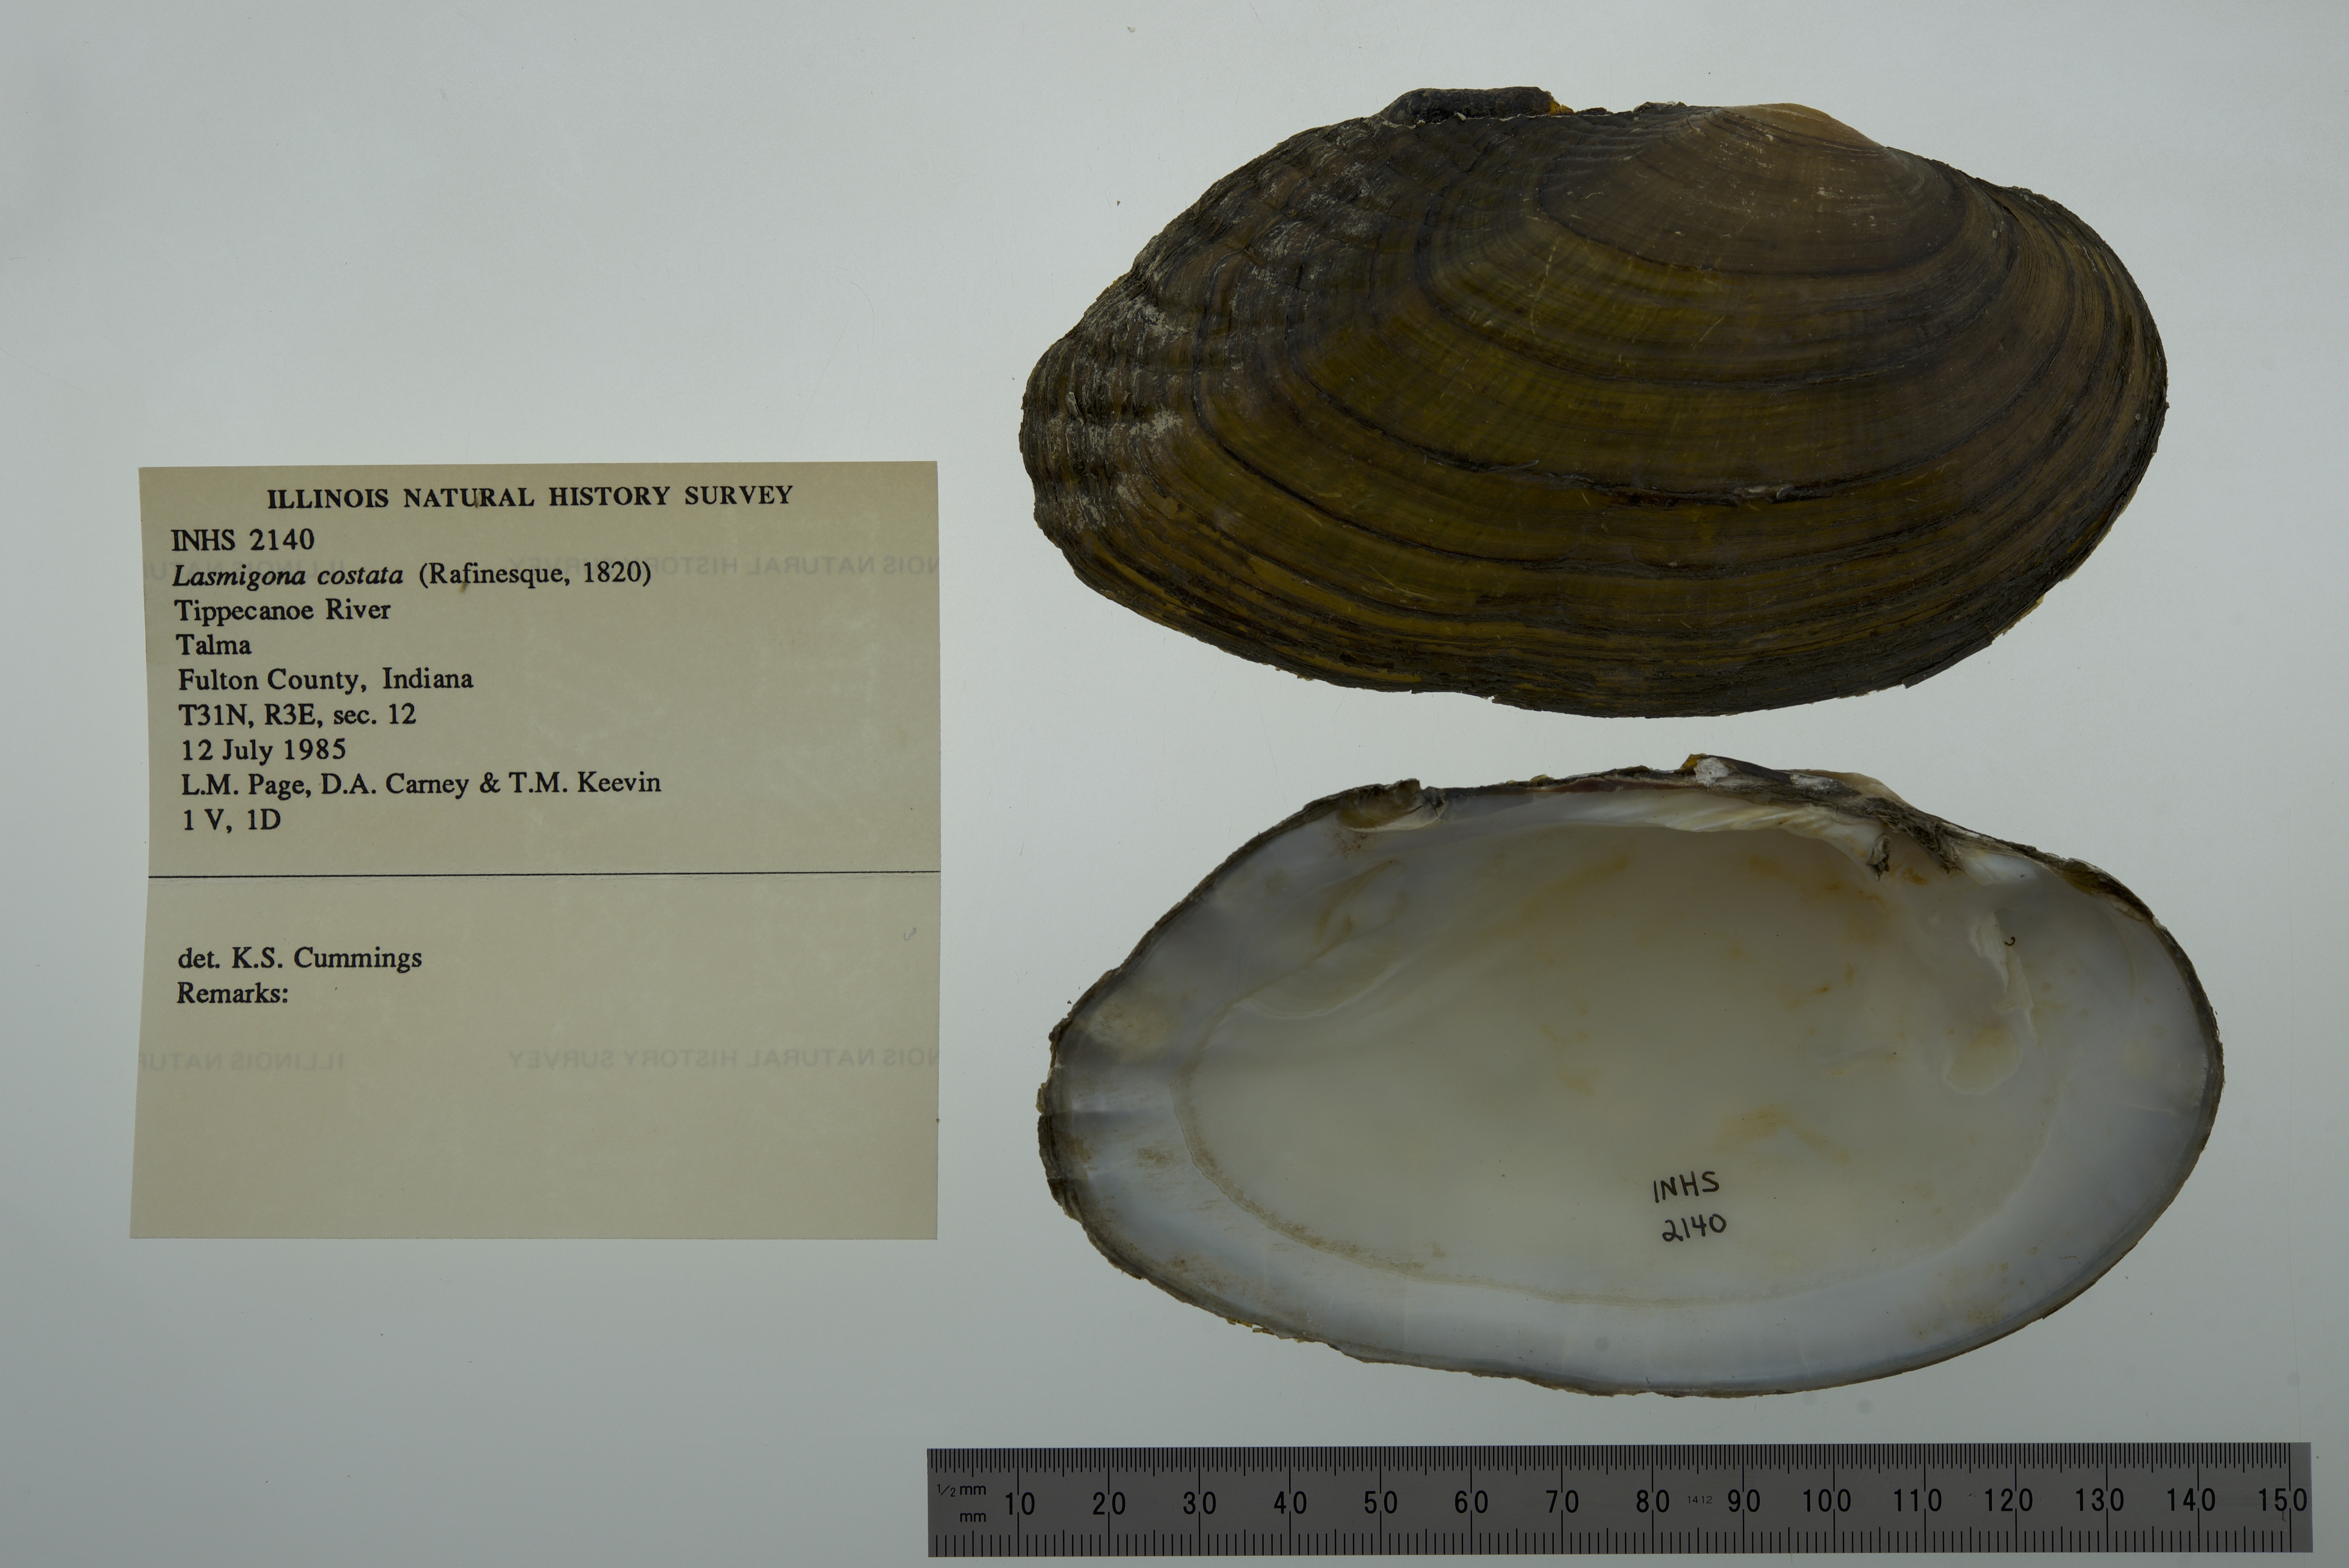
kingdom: Animalia
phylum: Mollusca
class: Bivalvia
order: Unionida
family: Unionidae
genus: Lasmigona
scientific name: Lasmigona costata
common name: Flutedshell
